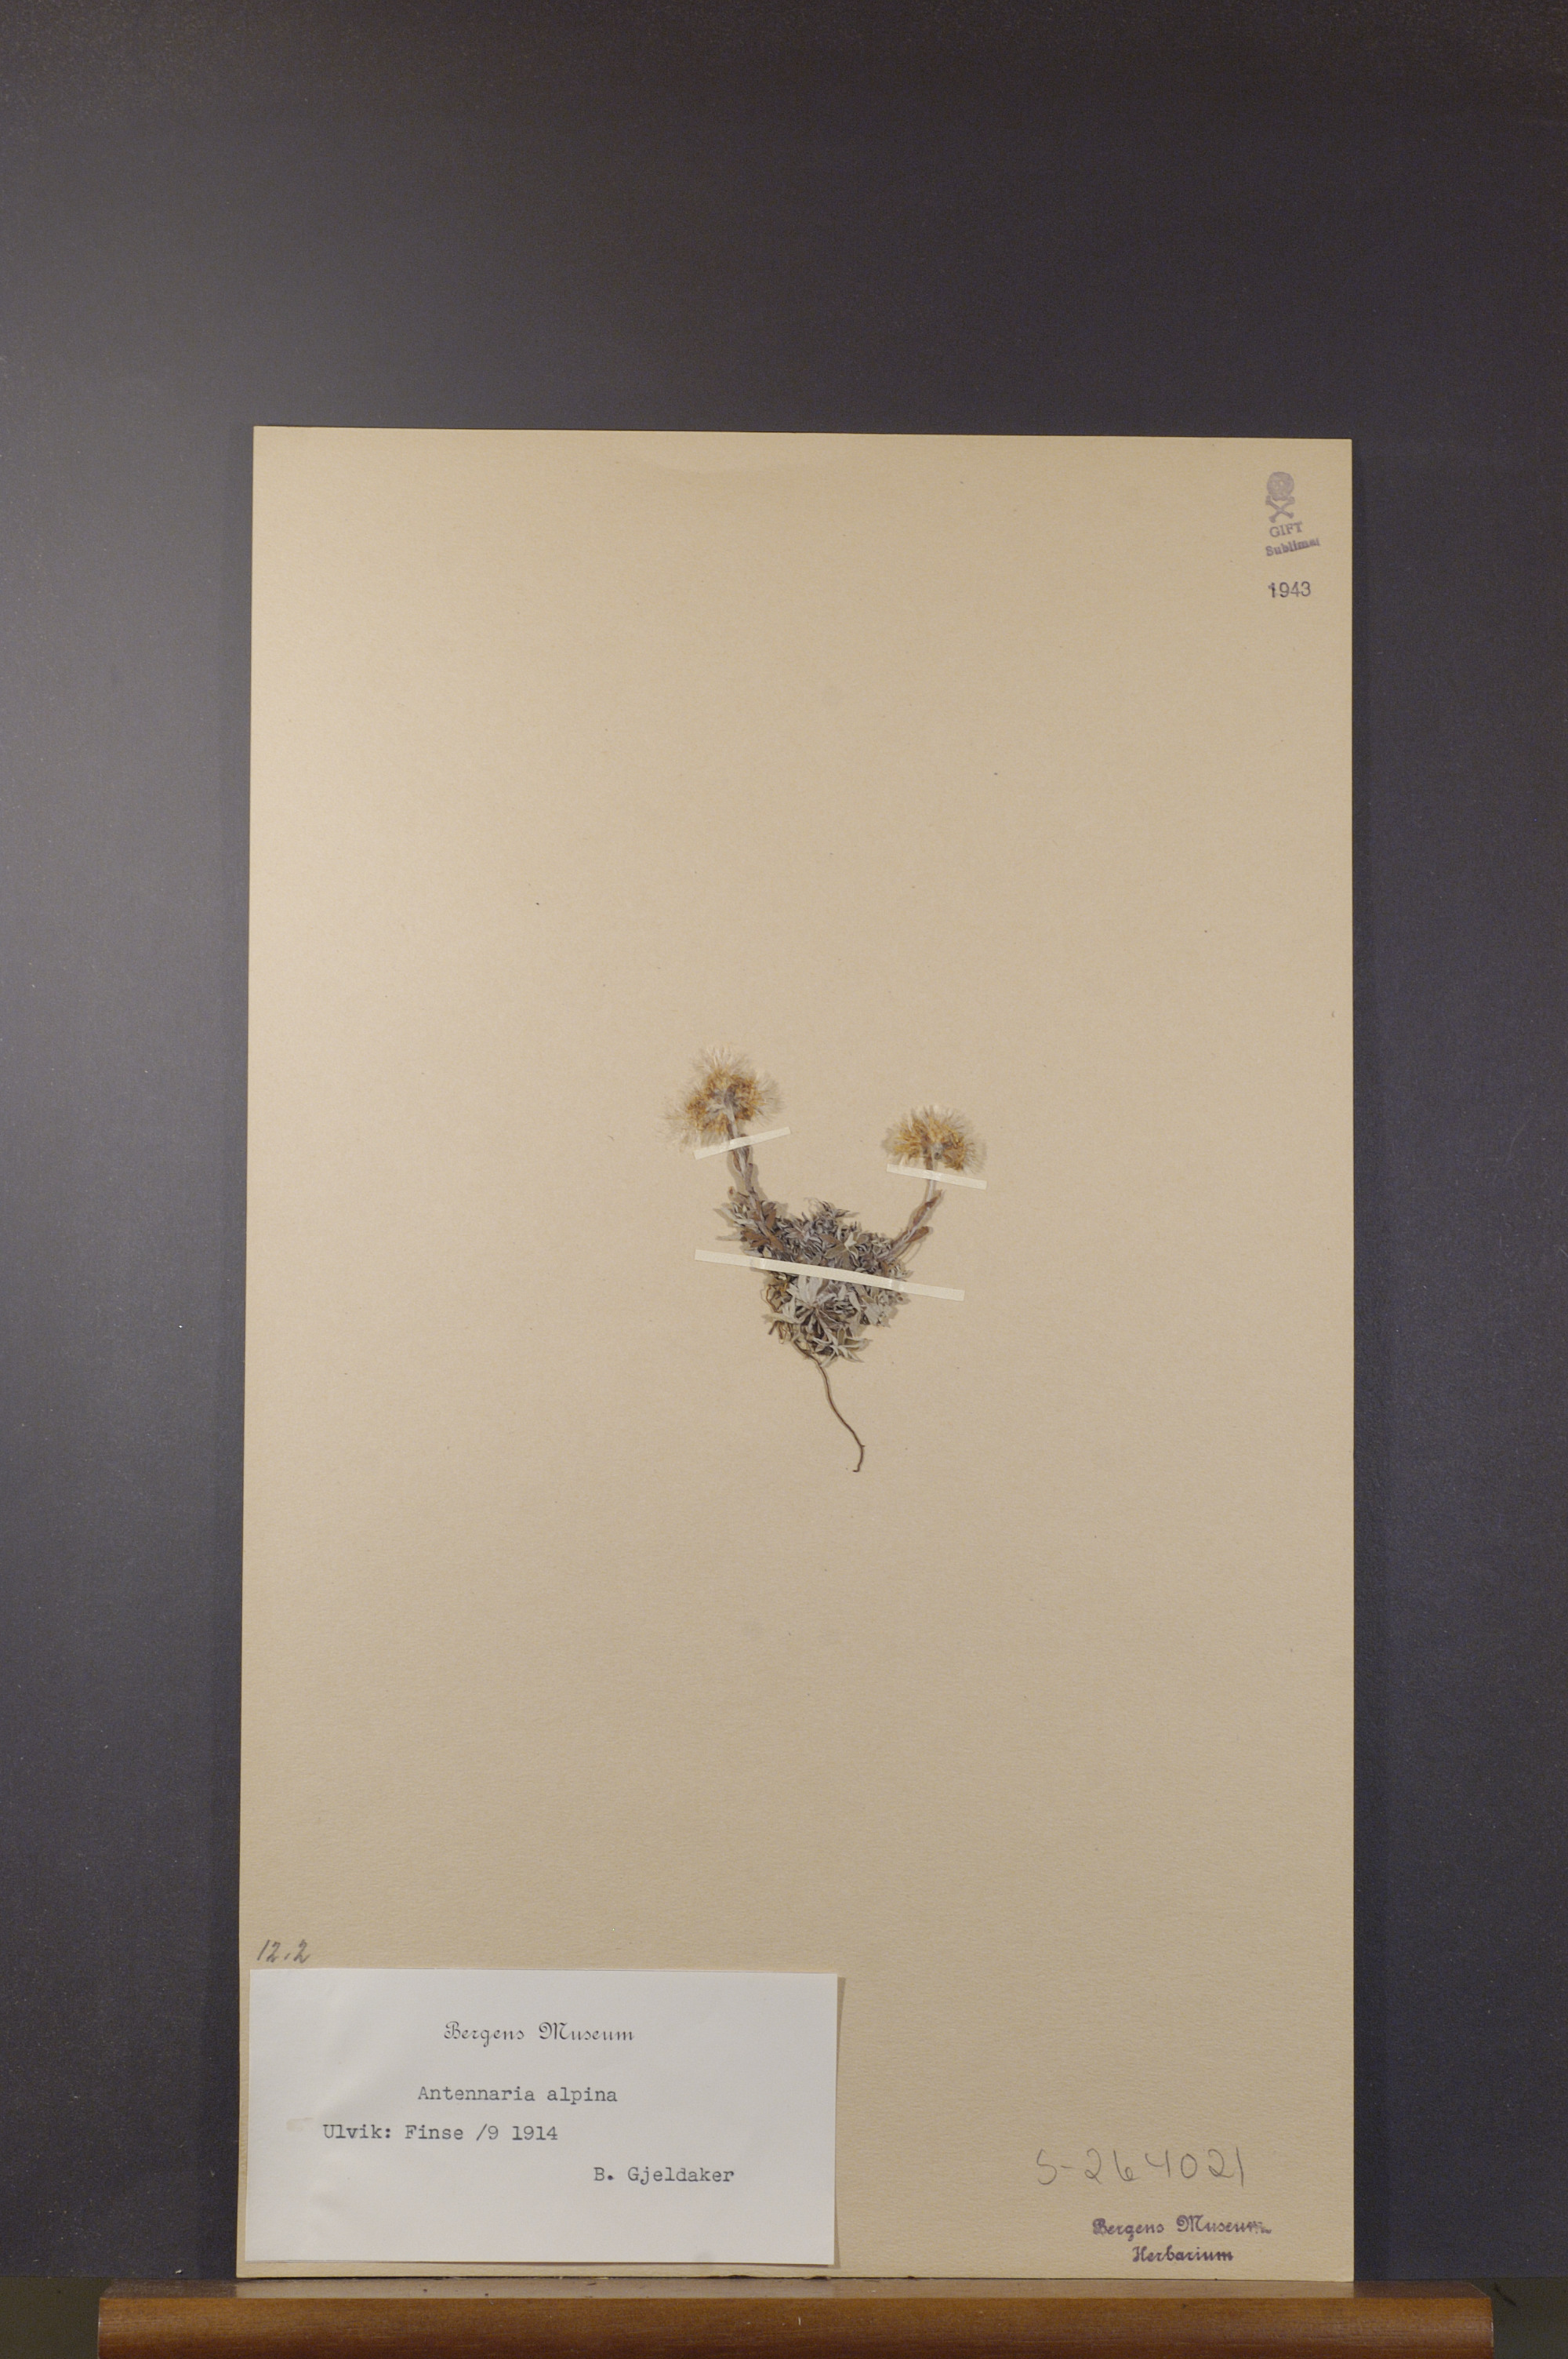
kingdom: Plantae
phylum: Tracheophyta
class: Magnoliopsida
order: Asterales
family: Asteraceae
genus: Antennaria
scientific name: Antennaria alpina
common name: Alpine pussytoes
